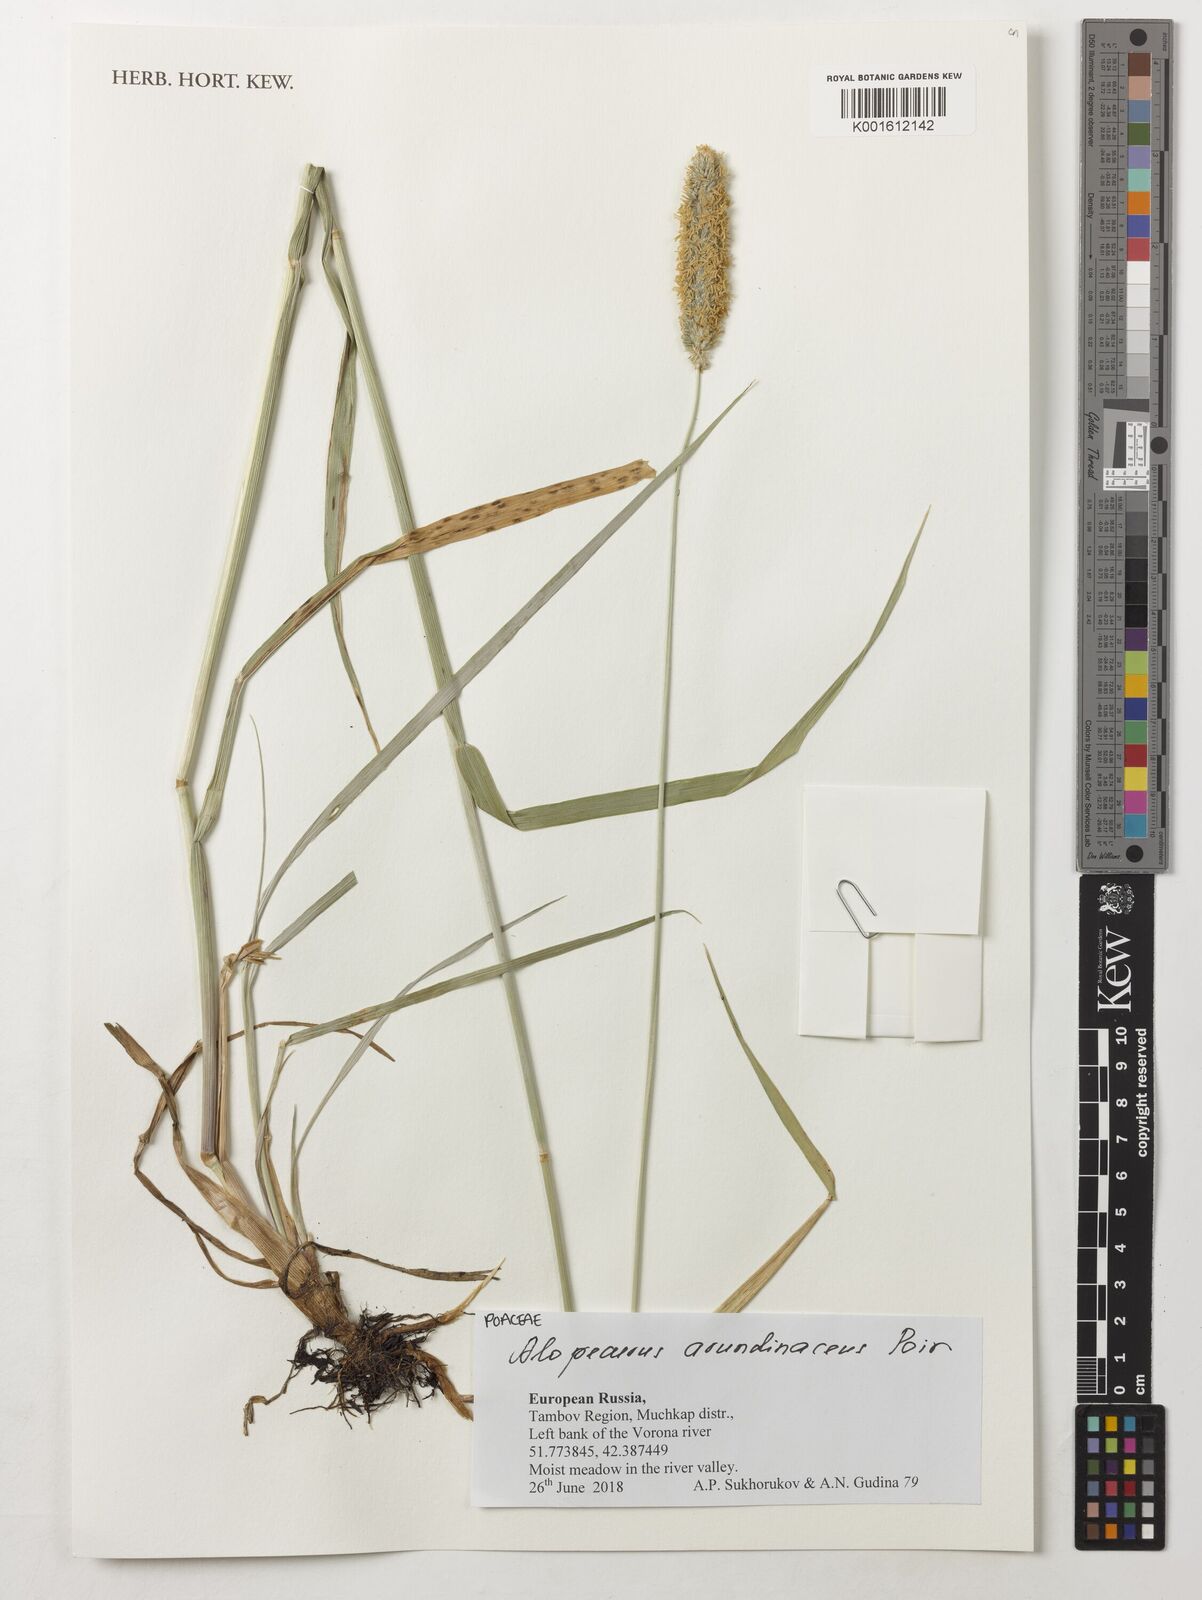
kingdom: Plantae
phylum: Tracheophyta
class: Liliopsida
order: Poales
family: Poaceae
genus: Alopecurus
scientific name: Alopecurus arundinaceus
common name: Creeping meadow foxtail
